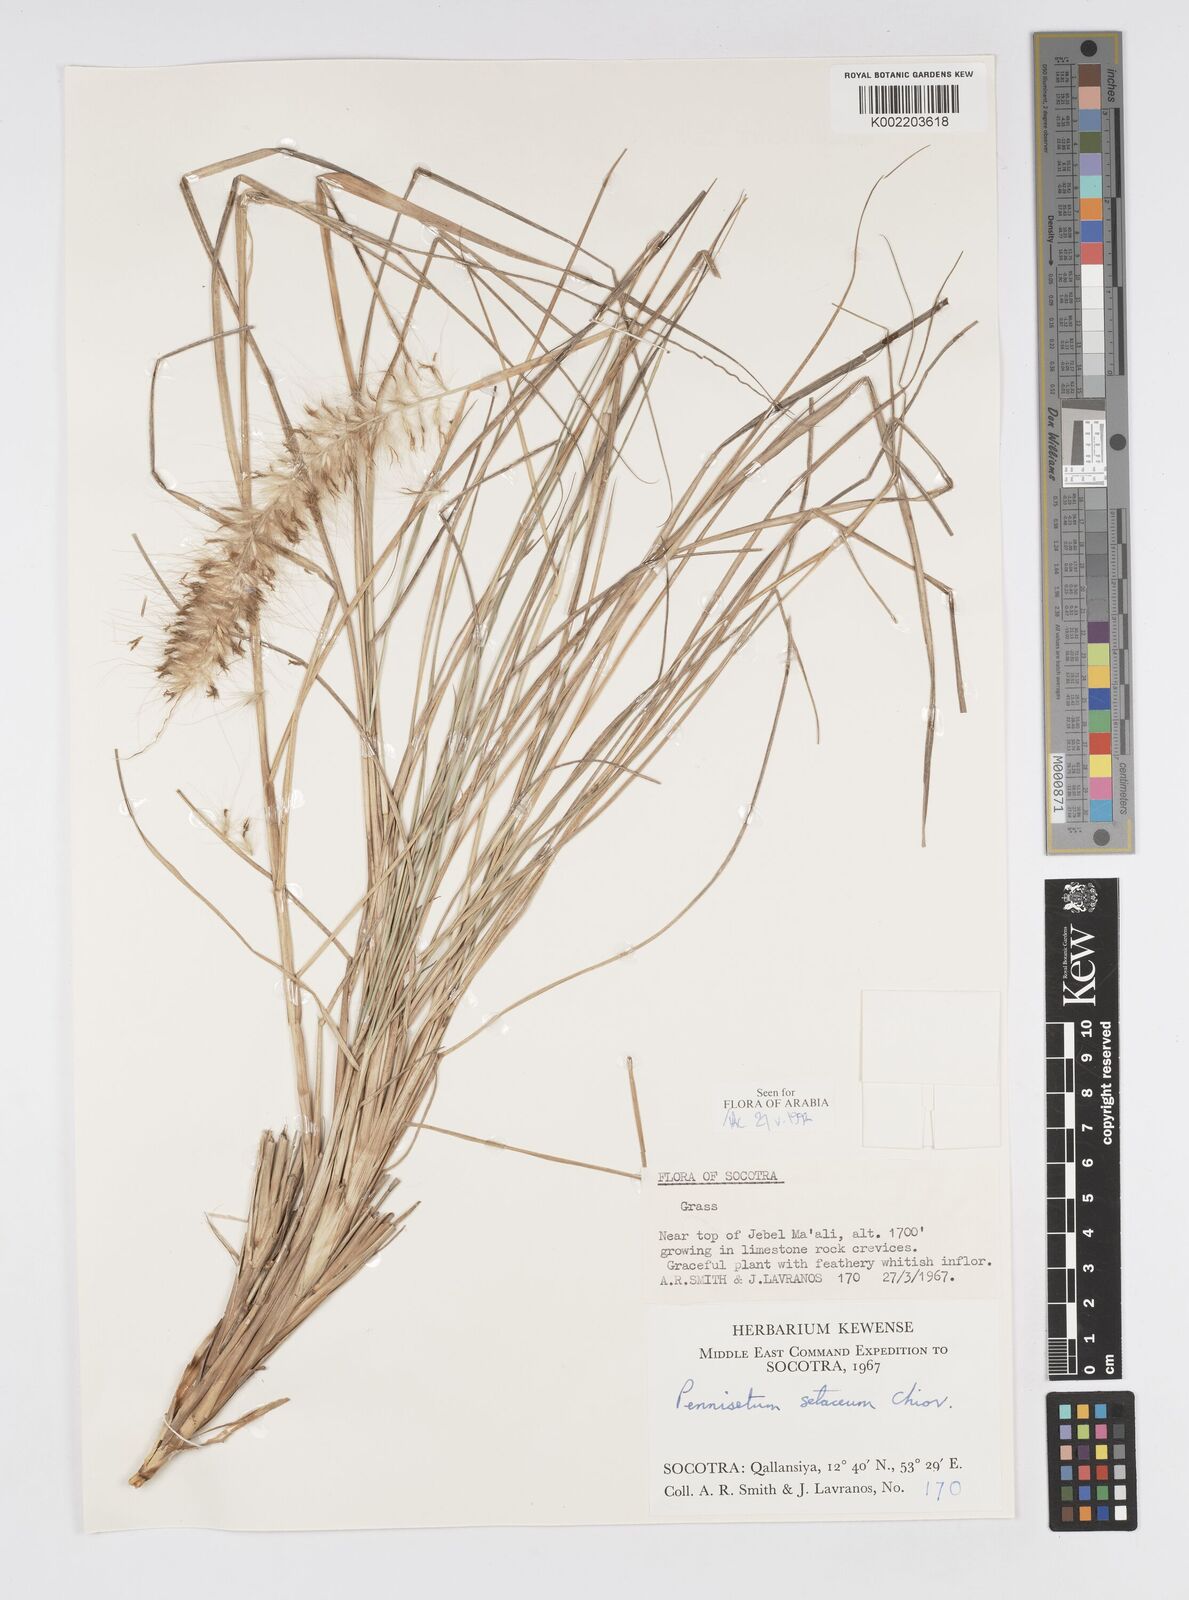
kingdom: Plantae
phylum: Tracheophyta
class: Liliopsida
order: Poales
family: Poaceae
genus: Cenchrus
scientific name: Cenchrus setaceus
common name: Crimson fountaingrass
